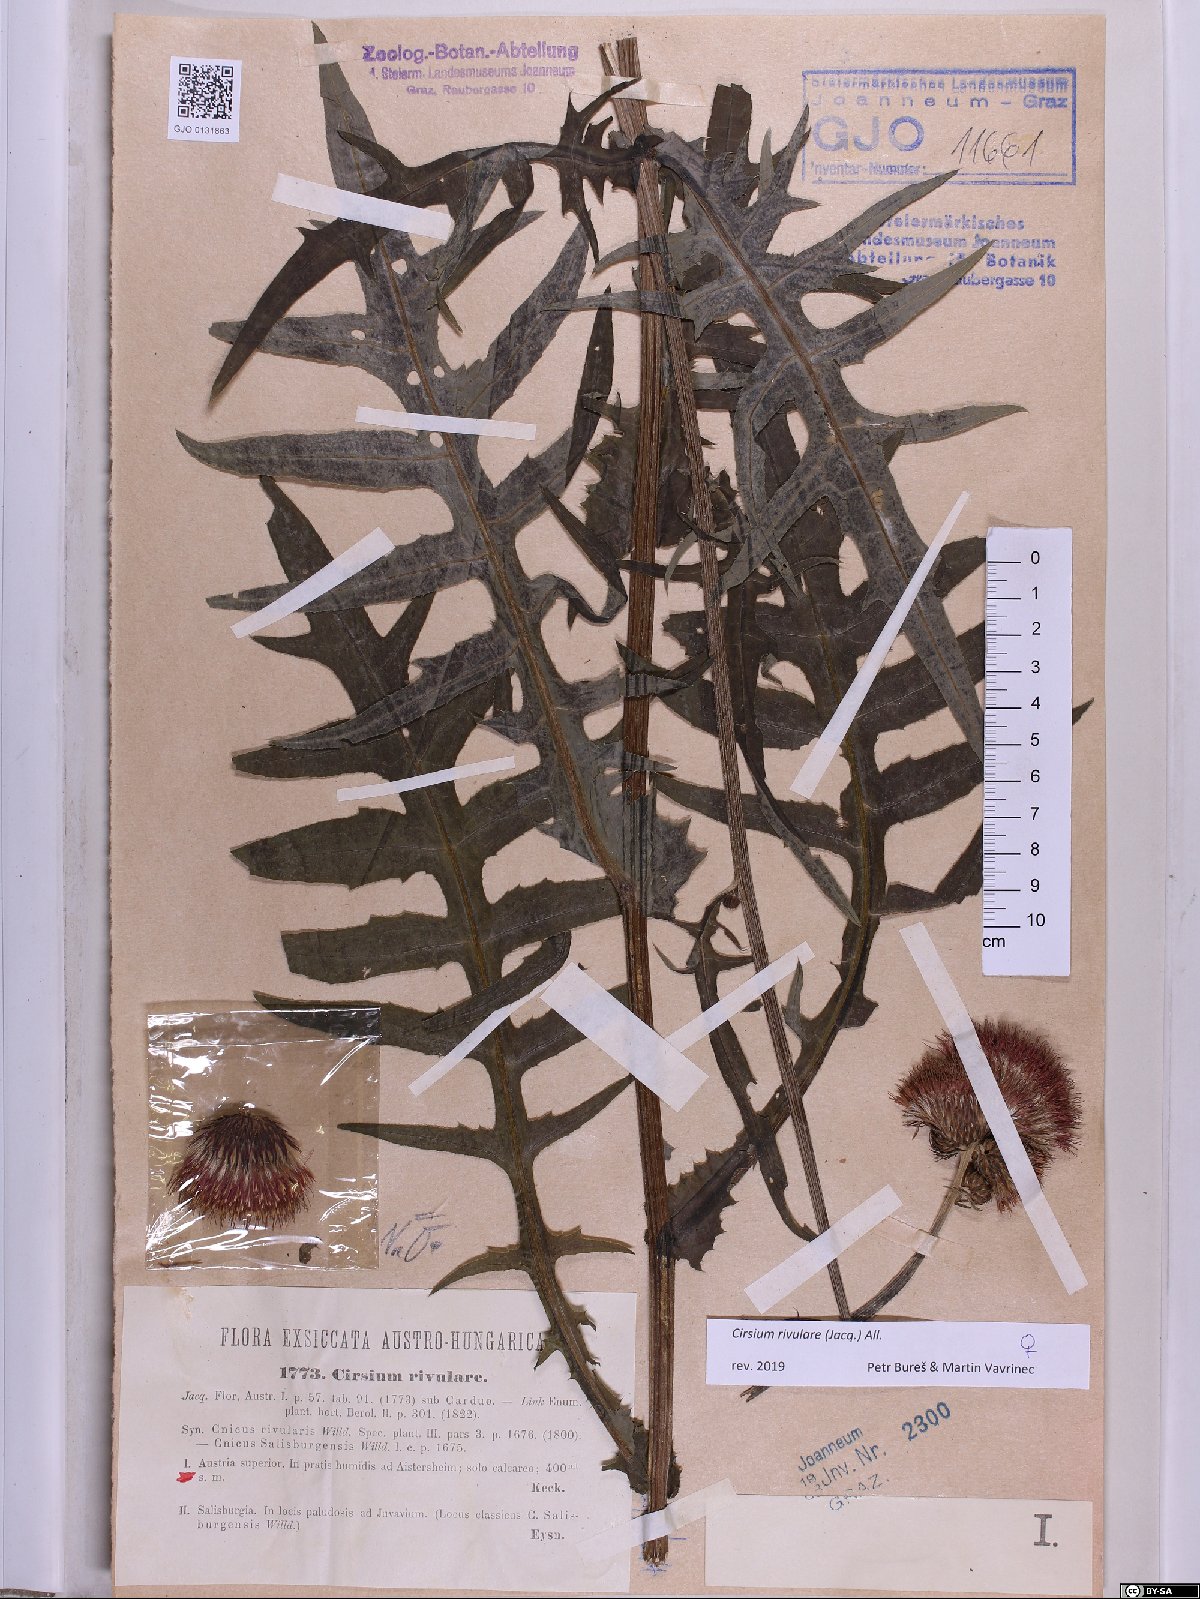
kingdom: Plantae
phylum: Tracheophyta
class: Magnoliopsida
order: Asterales
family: Asteraceae
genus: Cirsium
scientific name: Cirsium rivulare
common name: Brook thistle
